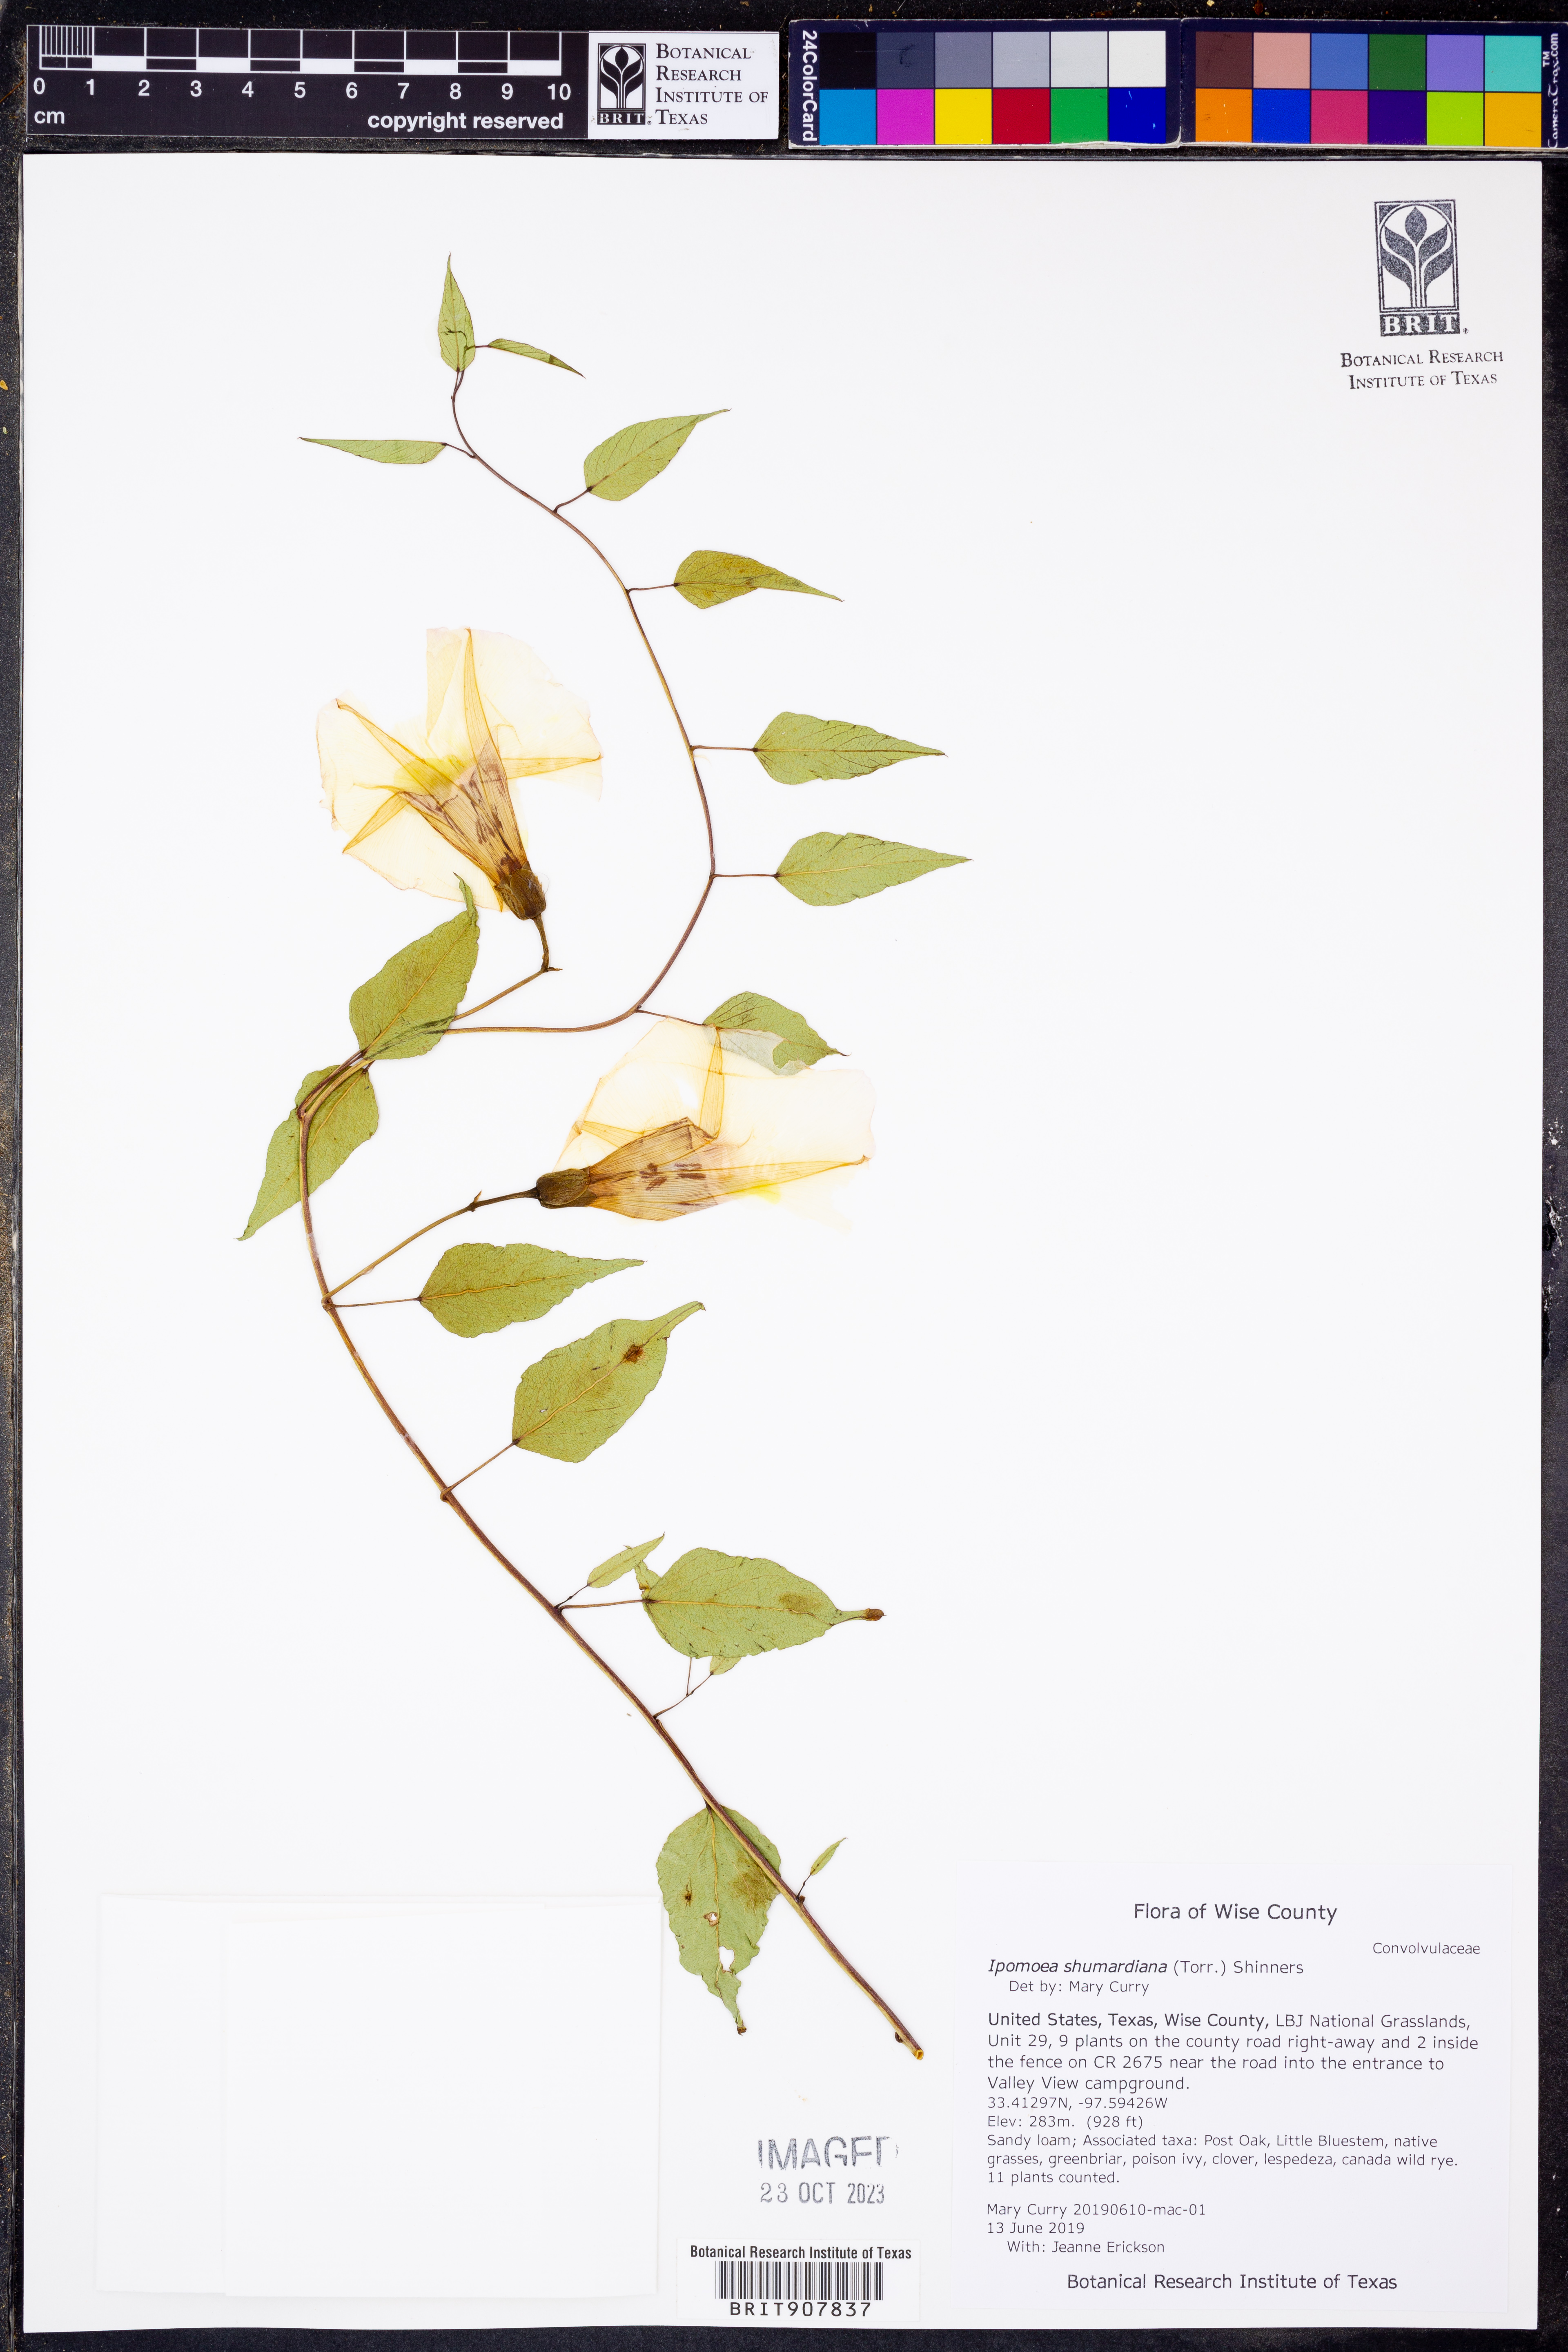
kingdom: Plantae
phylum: Tracheophyta
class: Magnoliopsida
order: Solanales
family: Convolvulaceae
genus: Ipomoea
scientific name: Ipomoea shumardiana
